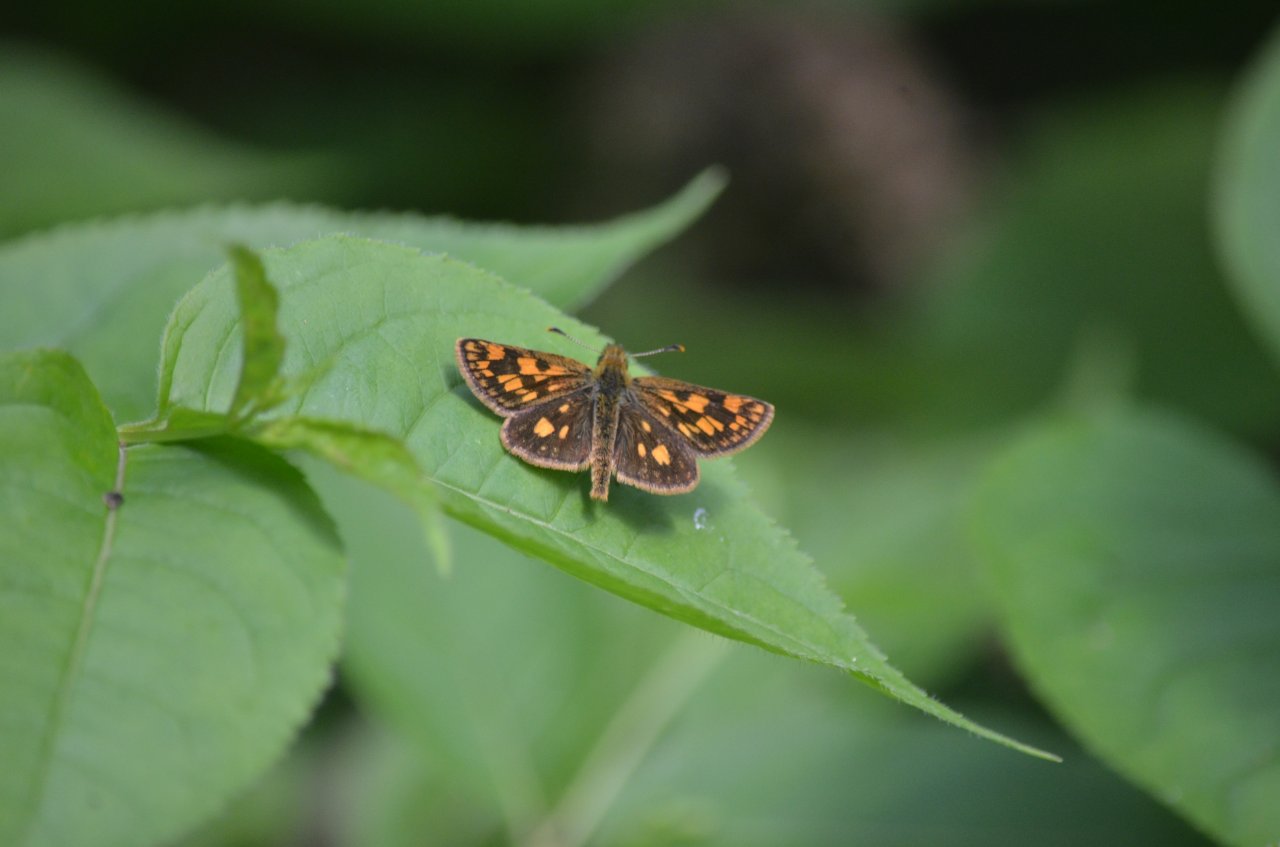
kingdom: Animalia
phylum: Arthropoda
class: Insecta
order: Lepidoptera
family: Hesperiidae
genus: Carterocephalus
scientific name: Carterocephalus palaemon
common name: Chequered Skipper
